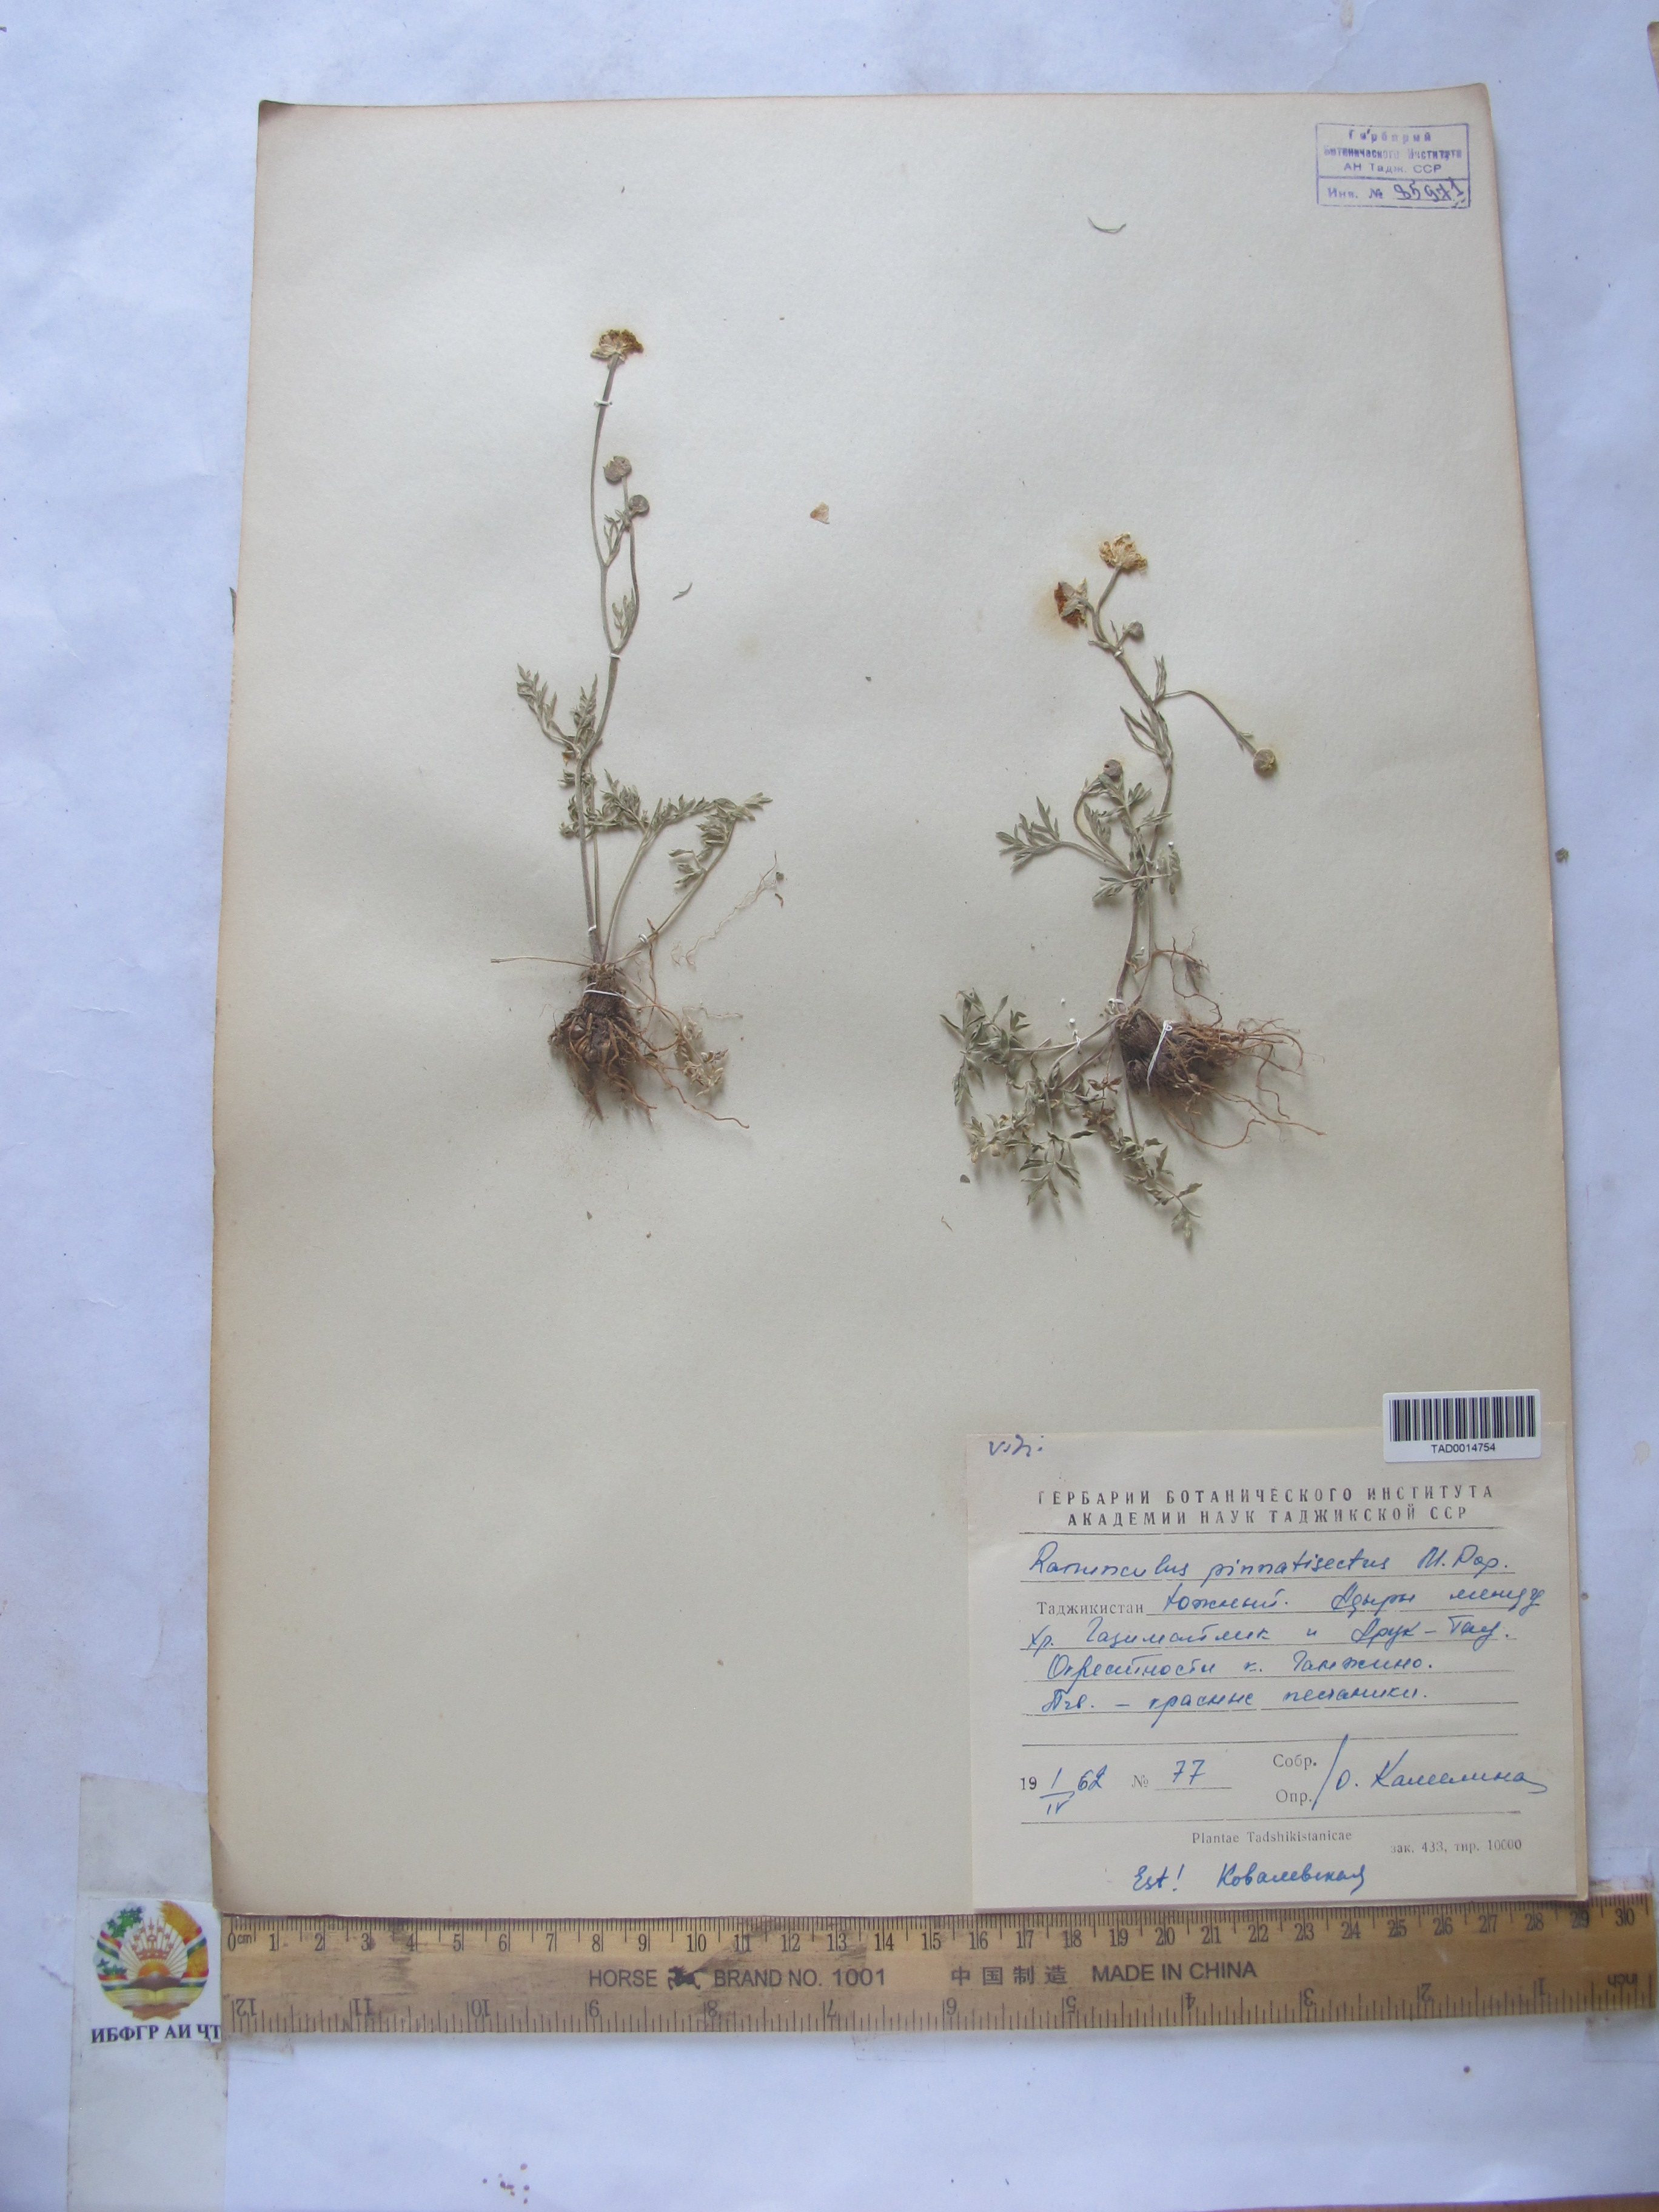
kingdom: Plantae
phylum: Tracheophyta
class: Magnoliopsida
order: Ranunculales
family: Ranunculaceae
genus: Ranunculus
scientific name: Ranunculus pinnatisectus
